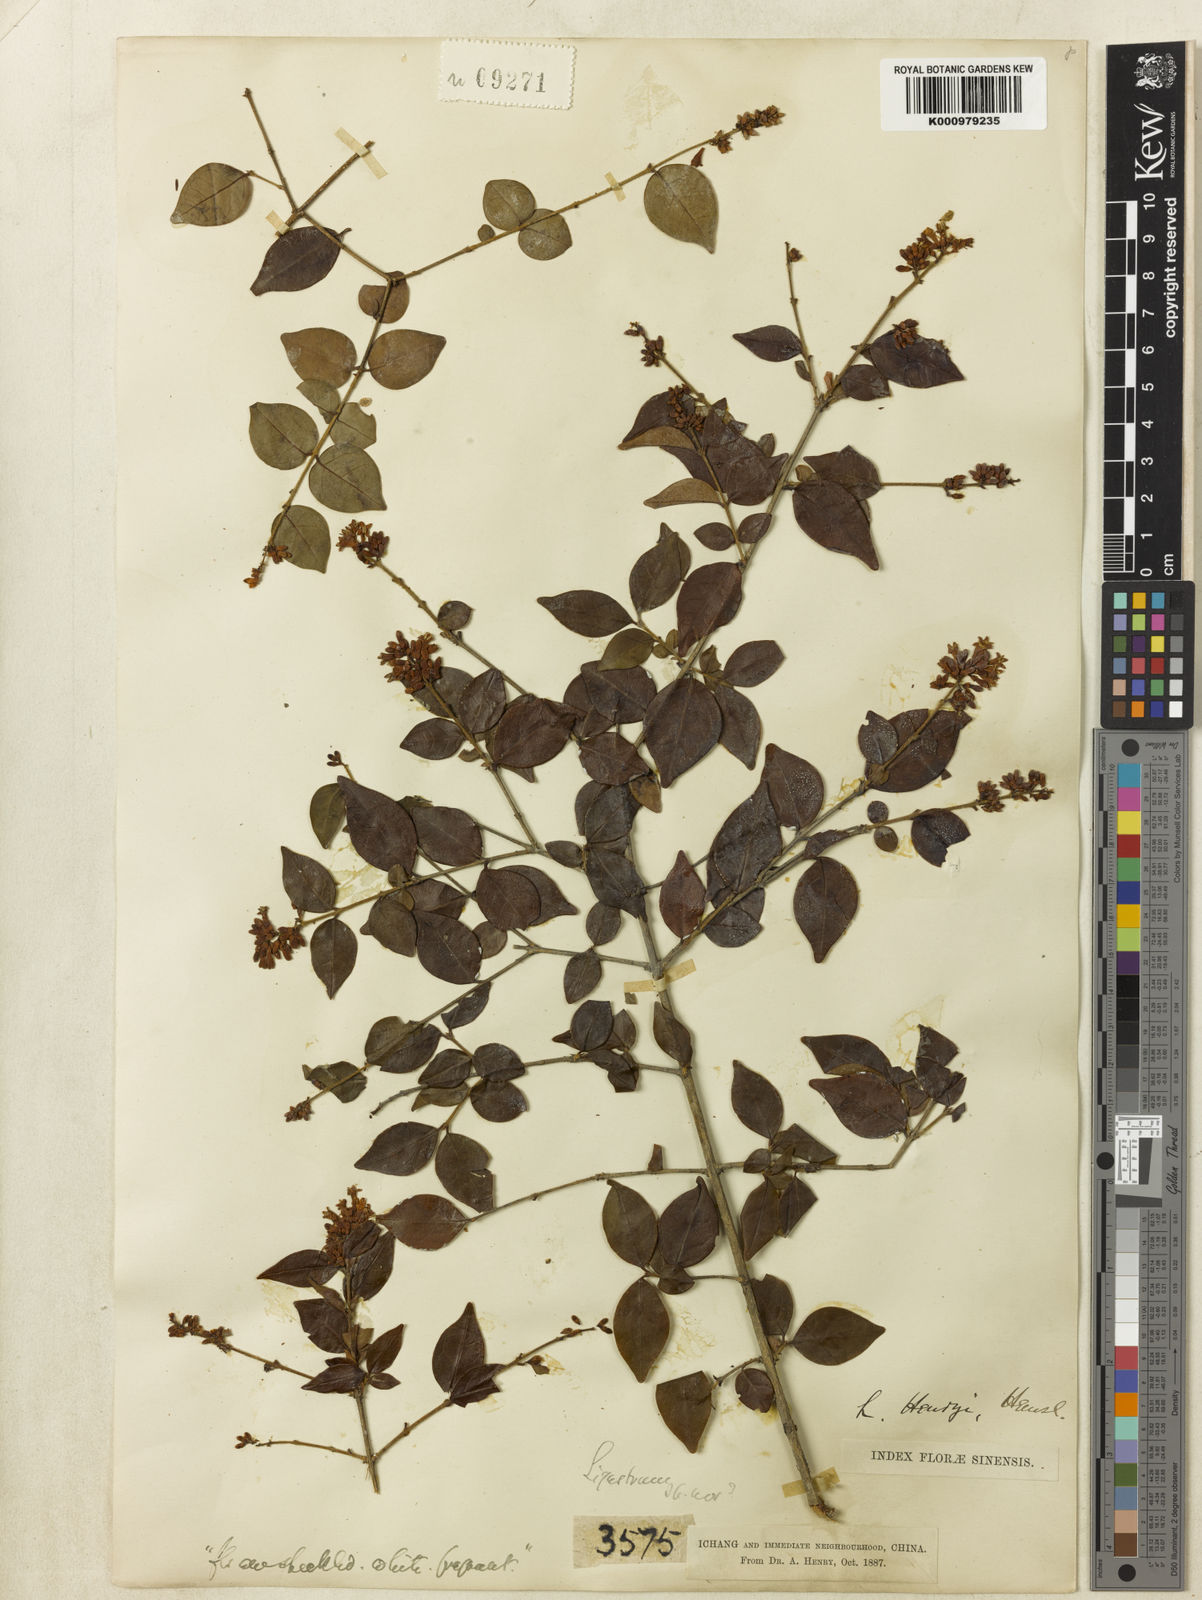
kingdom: Plantae
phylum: Tracheophyta
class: Magnoliopsida
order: Lamiales
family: Oleaceae
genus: Ligustrum
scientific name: Ligustrum henryi
